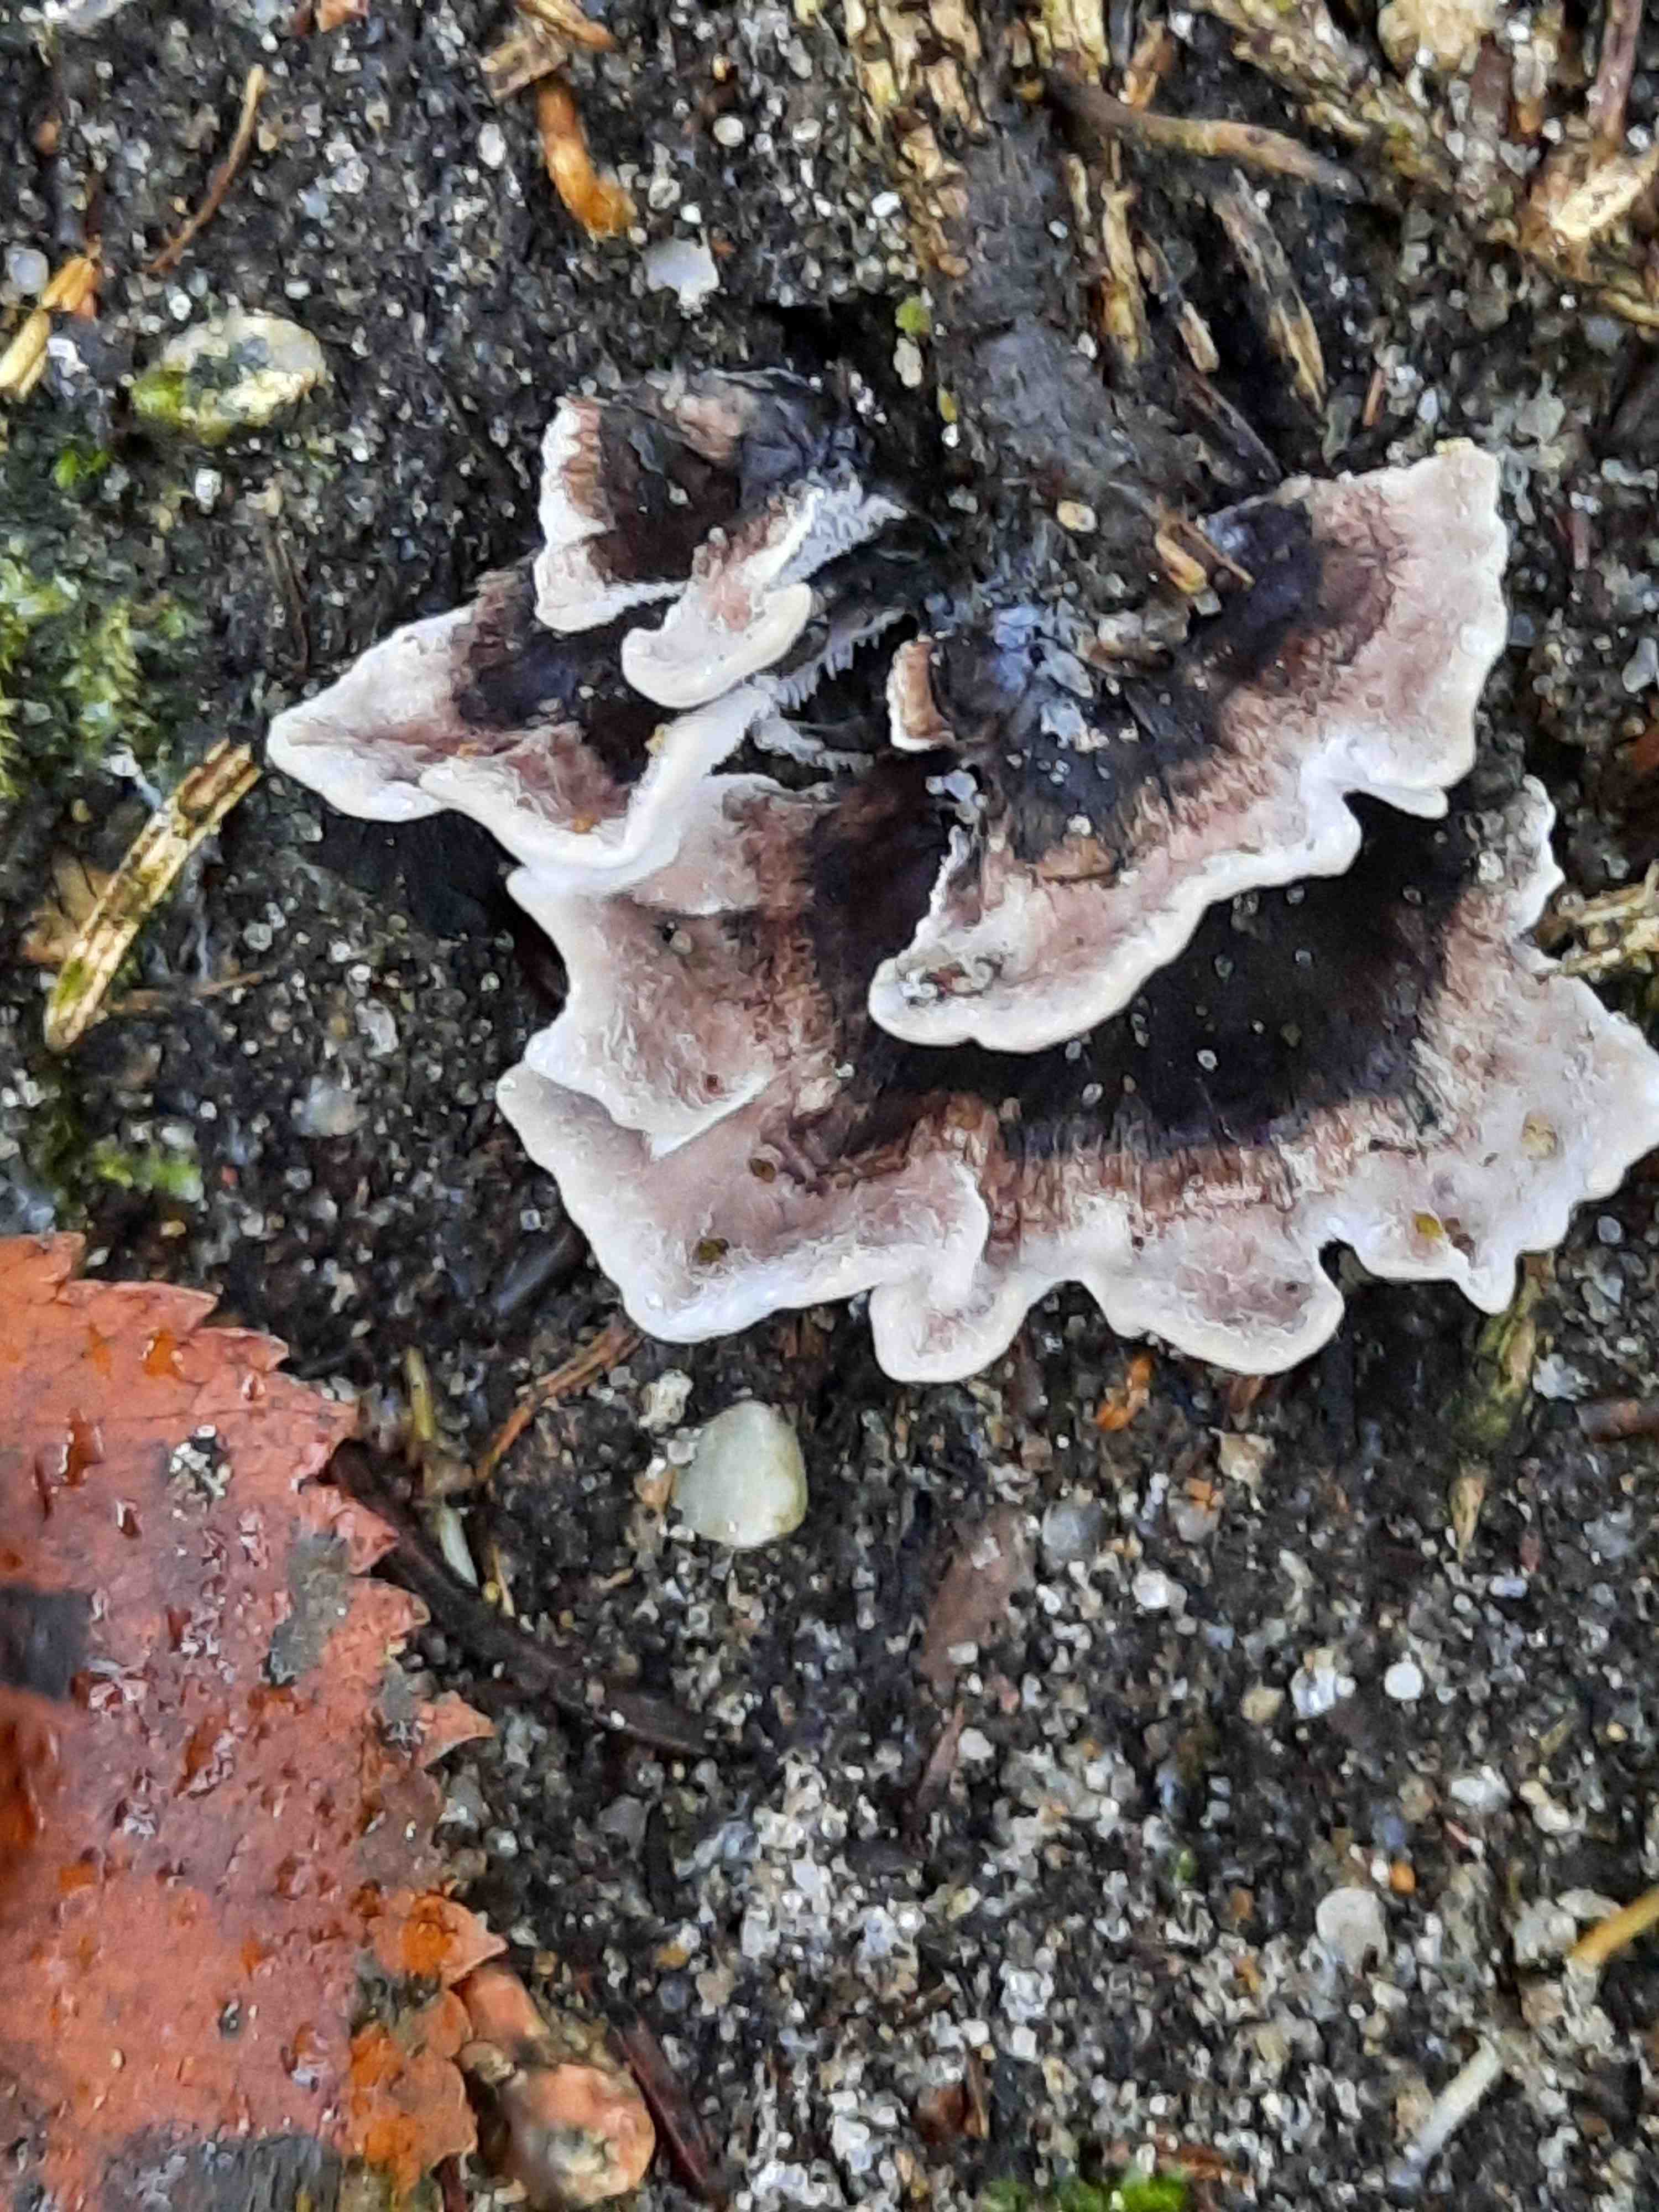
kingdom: Fungi
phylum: Basidiomycota
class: Agaricomycetes
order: Thelephorales
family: Thelephoraceae
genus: Phellodon
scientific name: Phellodon tomentosus
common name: vellugtende duftpigsvamp
